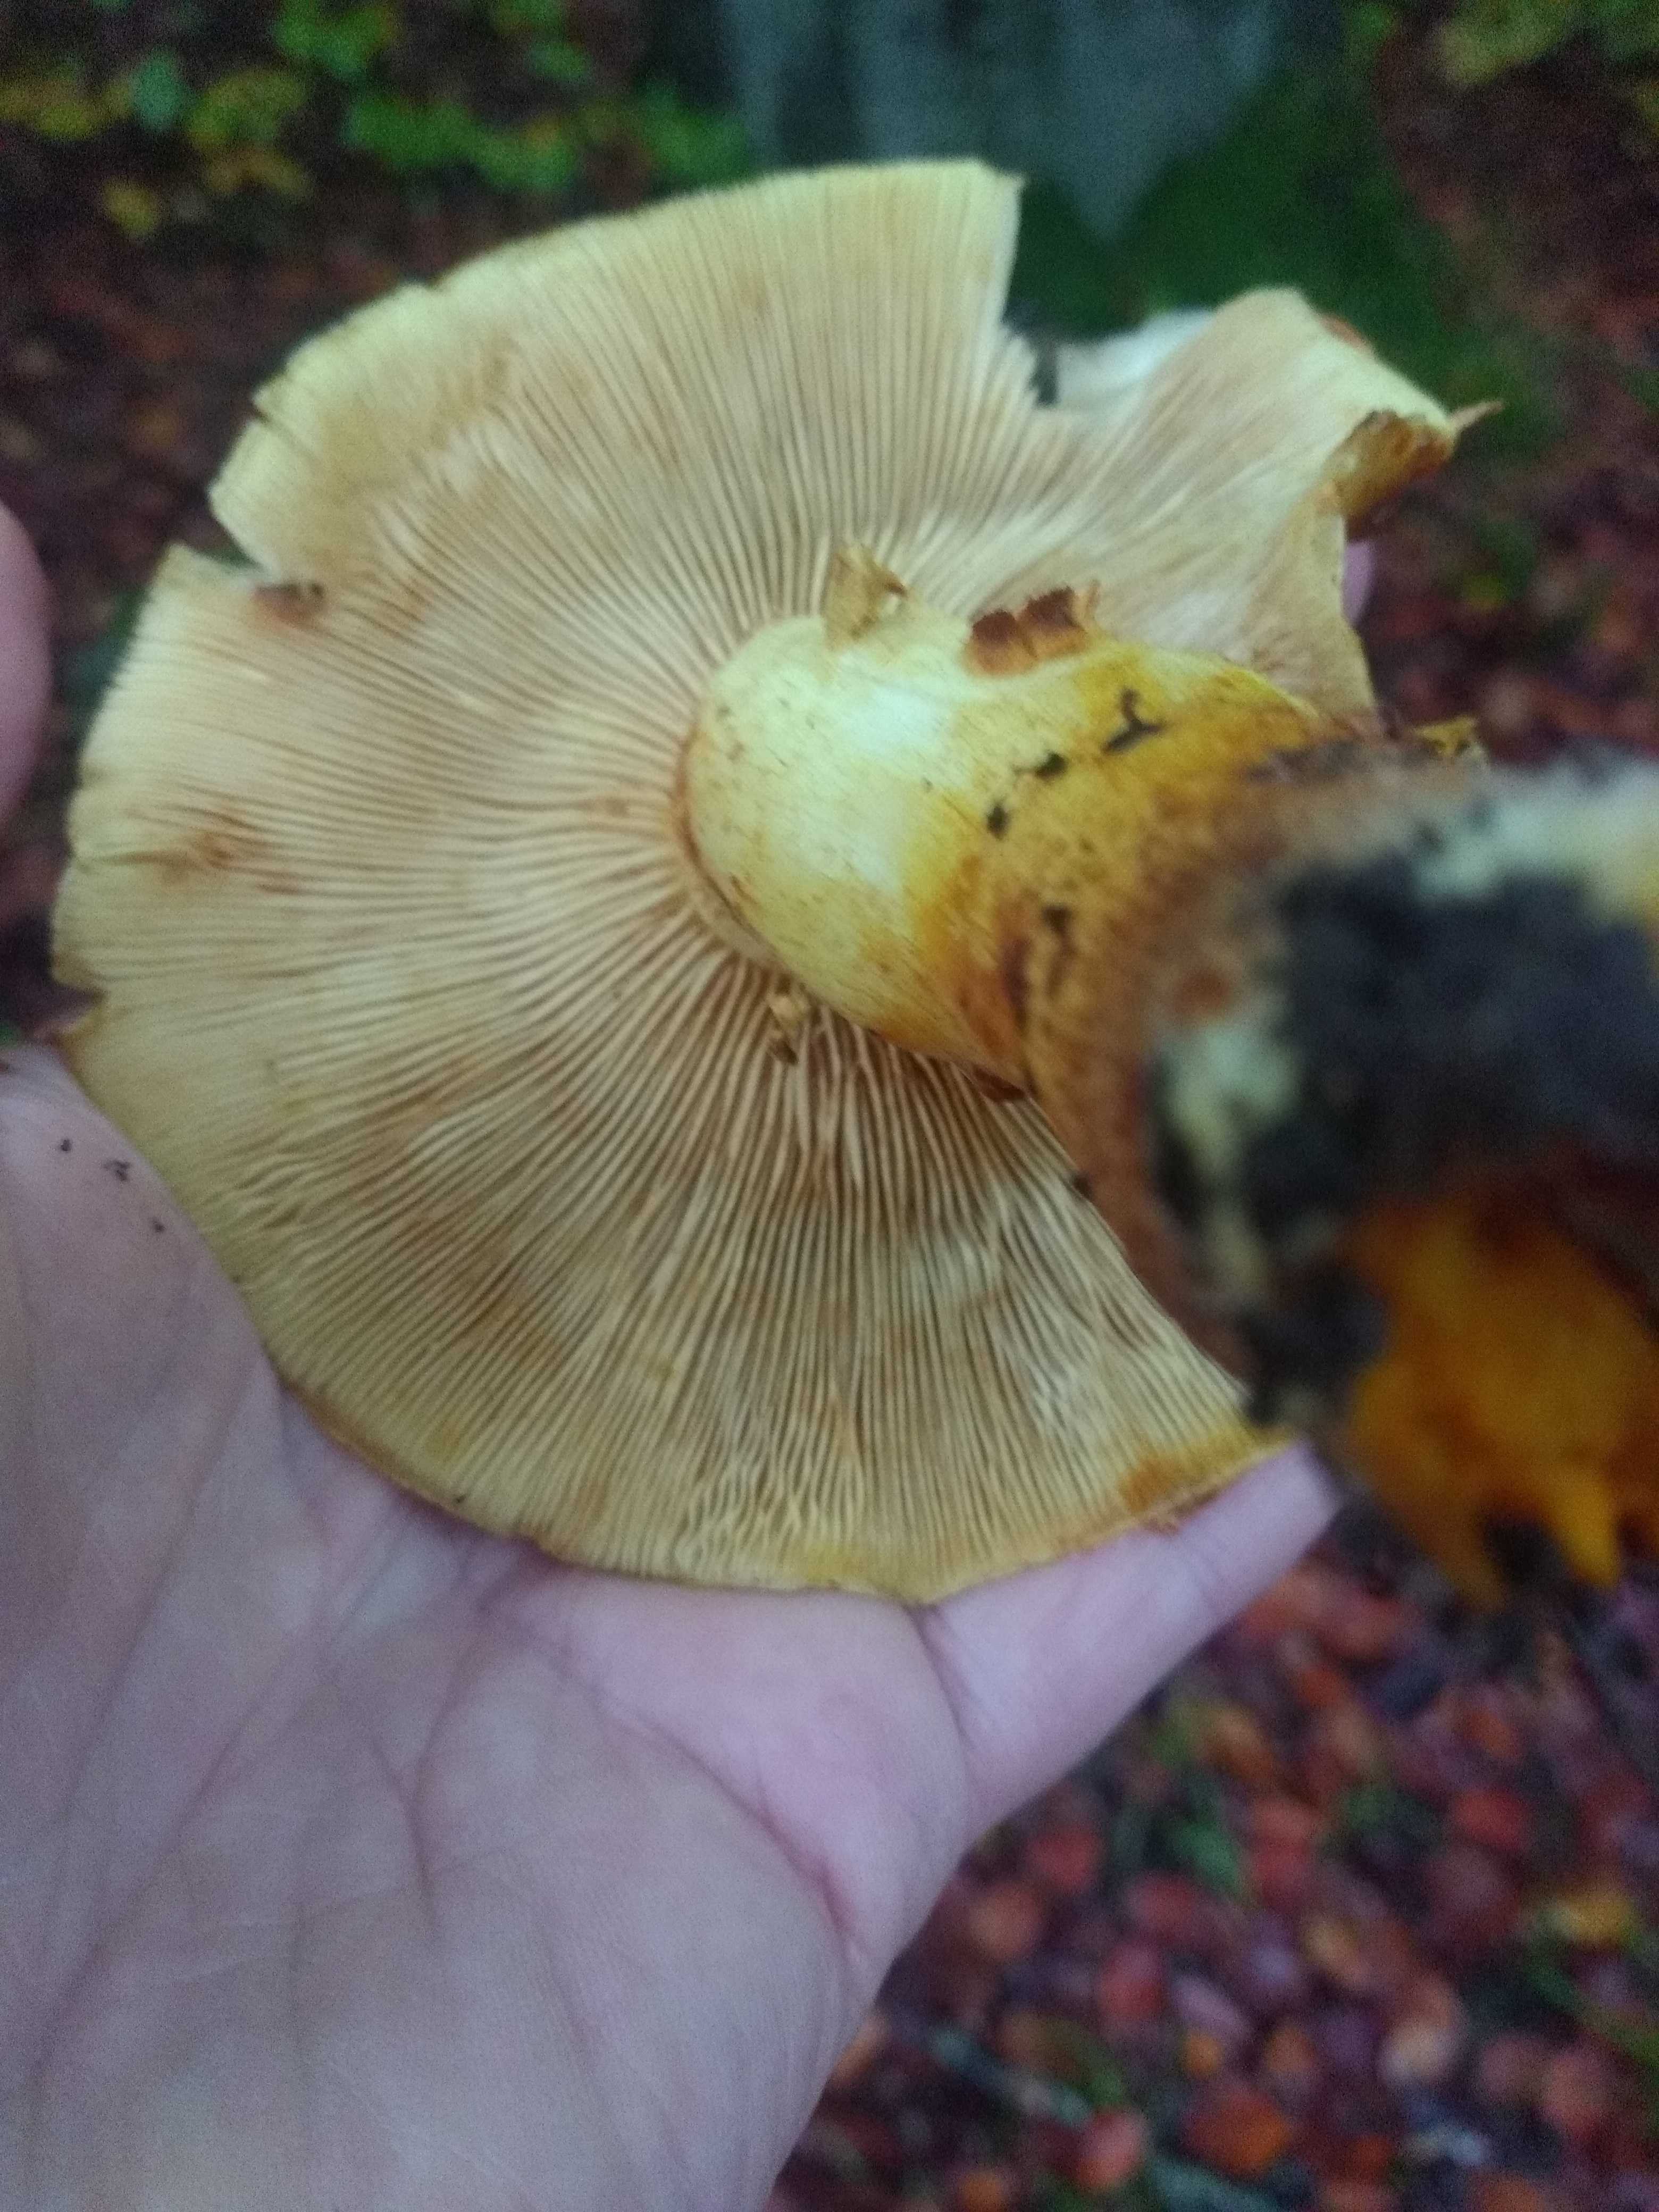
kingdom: Fungi
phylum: Basidiomycota
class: Agaricomycetes
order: Agaricales
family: Strophariaceae
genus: Pholiota
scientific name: Pholiota jahnii
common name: slimet skælhat
